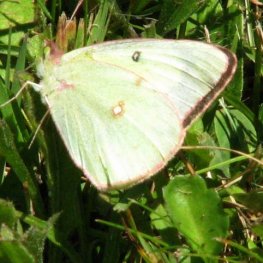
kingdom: Animalia
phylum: Arthropoda
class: Insecta
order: Lepidoptera
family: Pieridae
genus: Colias
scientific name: Colias philodice
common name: Clouded Sulphur
